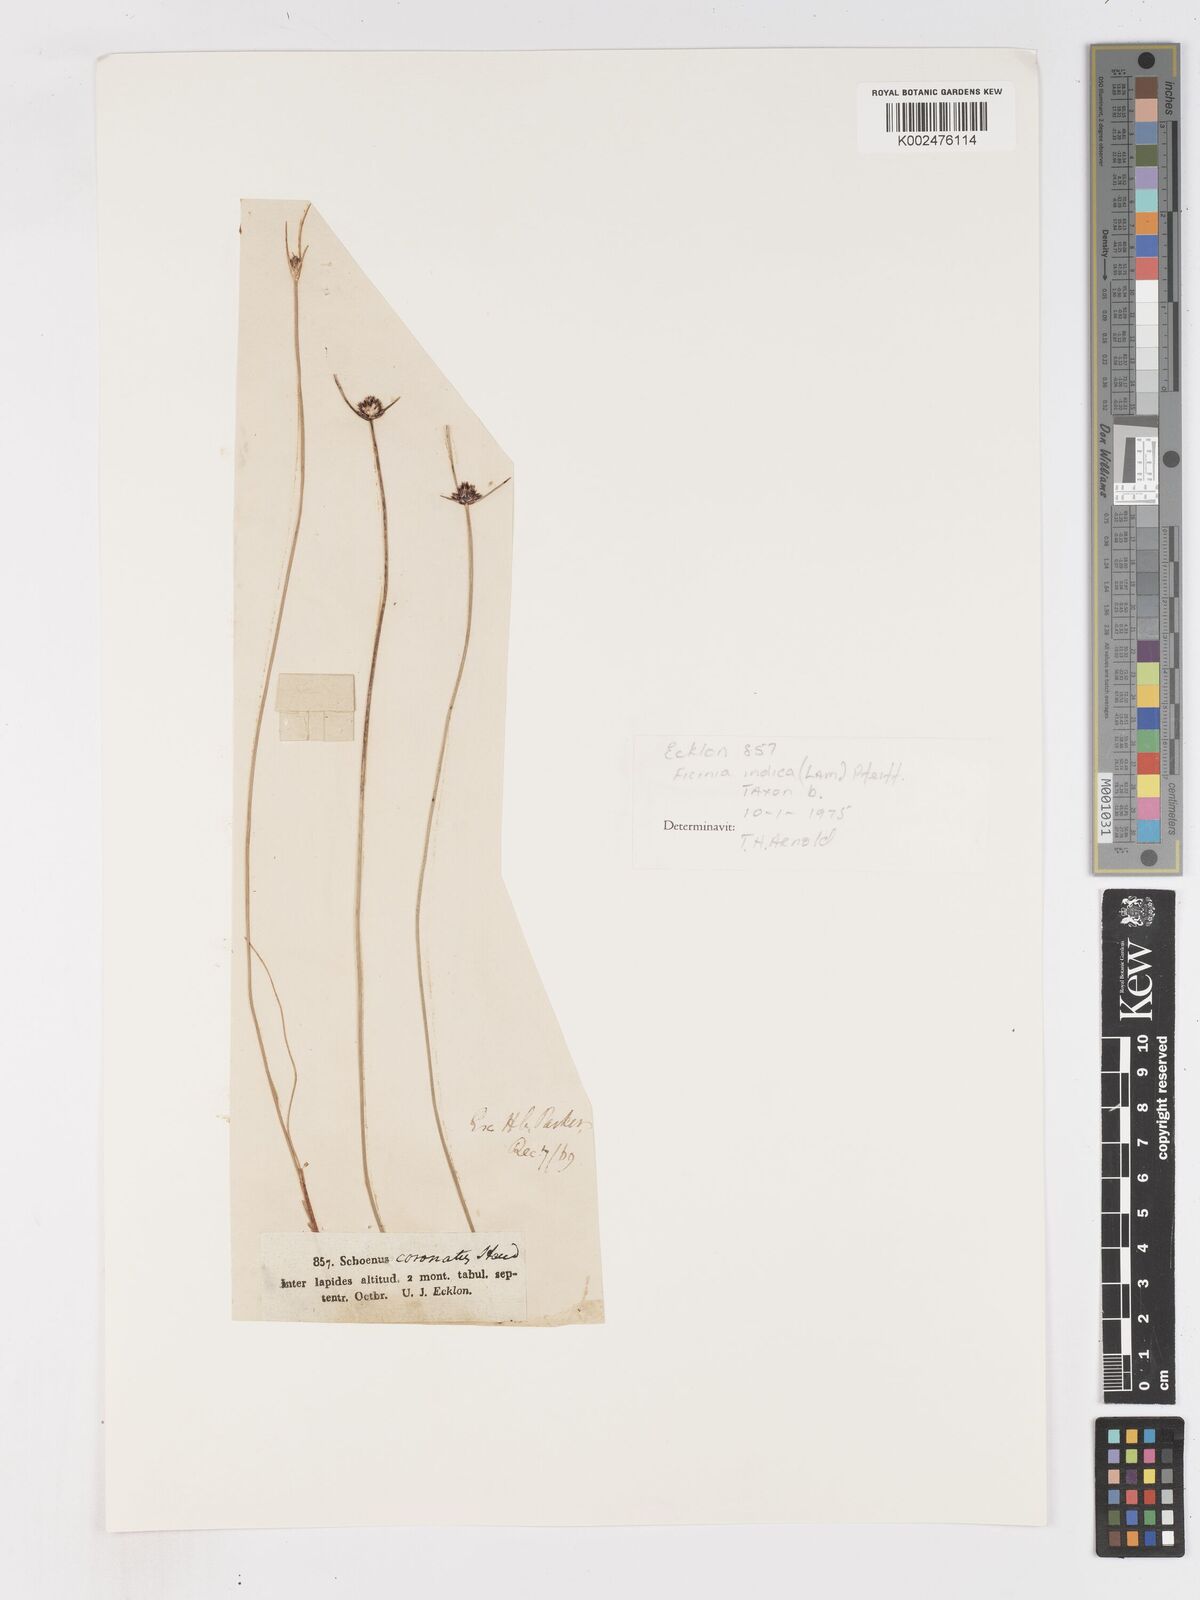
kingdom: Plantae
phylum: Tracheophyta
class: Liliopsida
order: Poales
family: Cyperaceae
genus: Ficinia
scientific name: Ficinia indica
